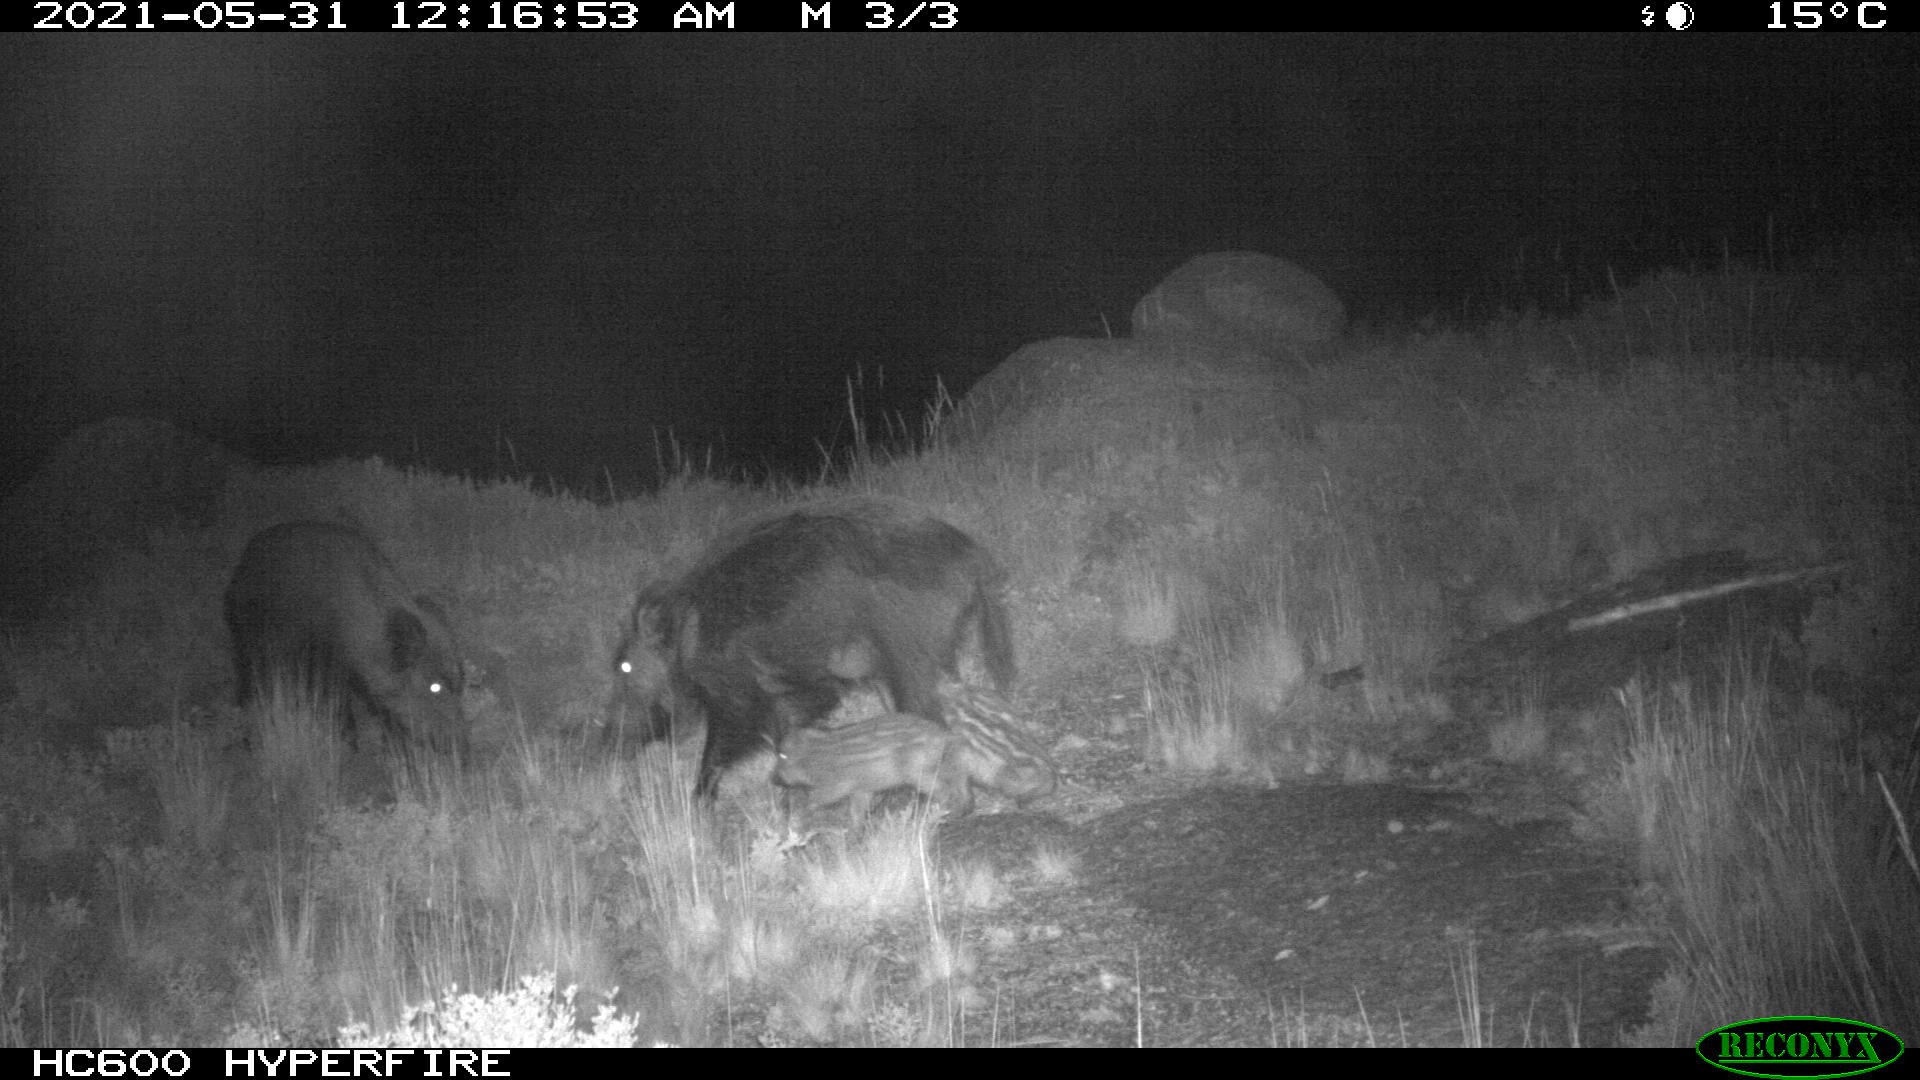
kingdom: Animalia
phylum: Chordata
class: Mammalia
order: Artiodactyla
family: Suidae
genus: Sus
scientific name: Sus scrofa
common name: Wild boar
